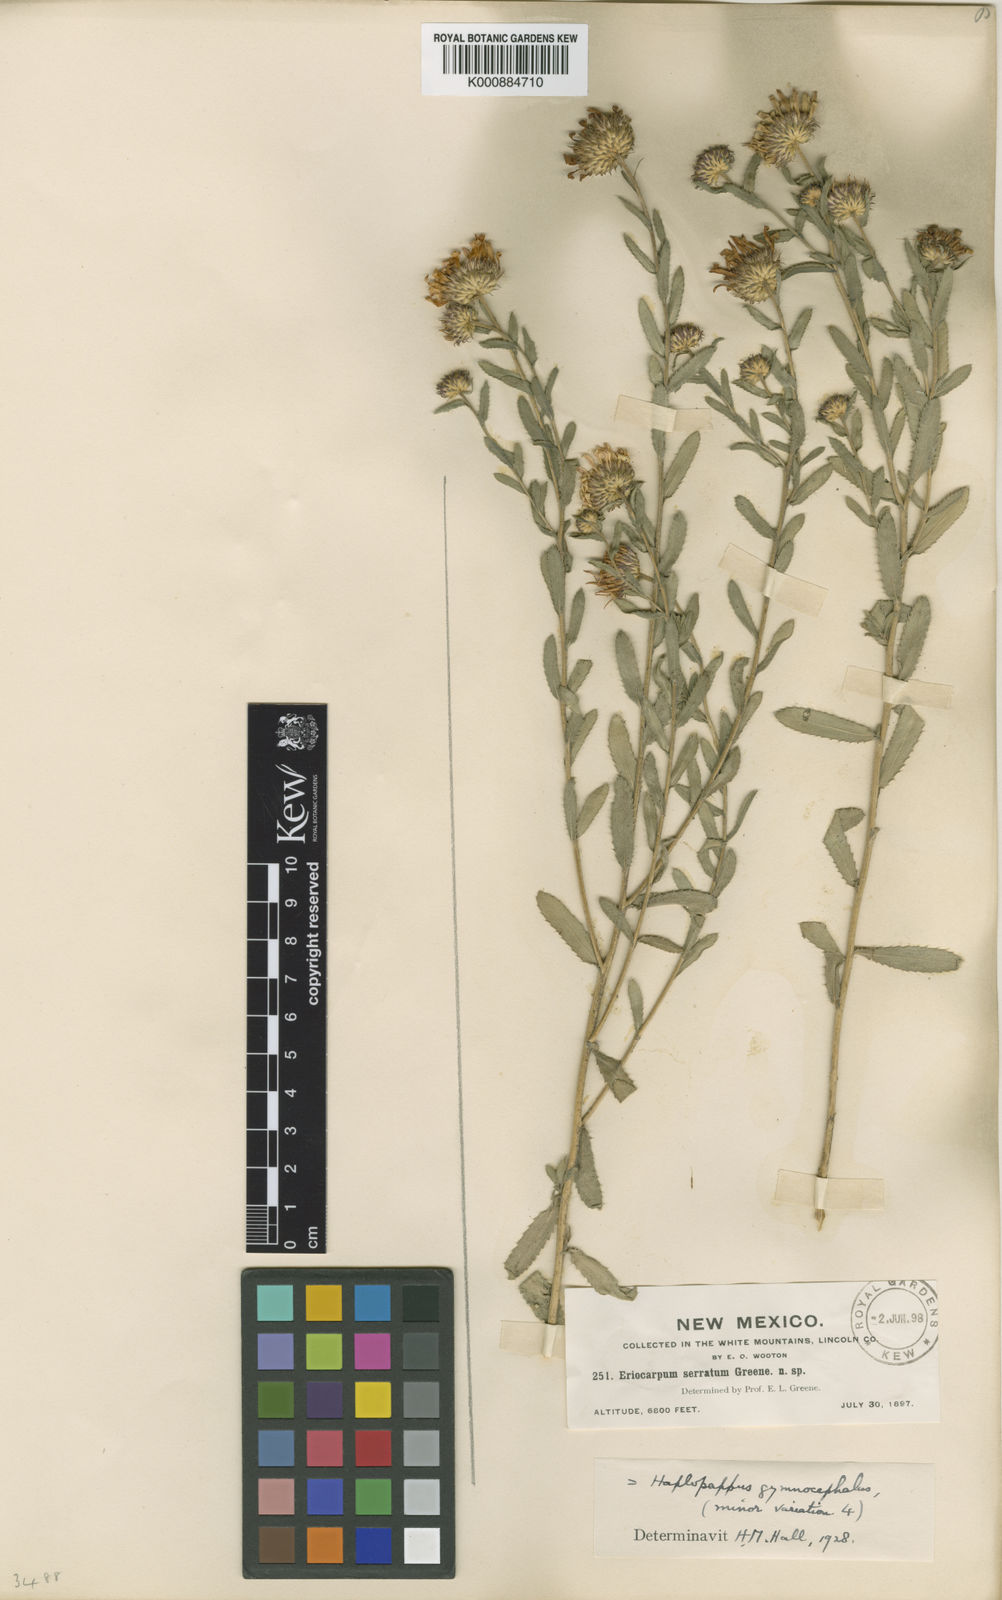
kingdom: Plantae
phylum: Tracheophyta
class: Magnoliopsida
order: Asterales
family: Asteraceae
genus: Xanthisma
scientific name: Xanthisma gymnocephalum
